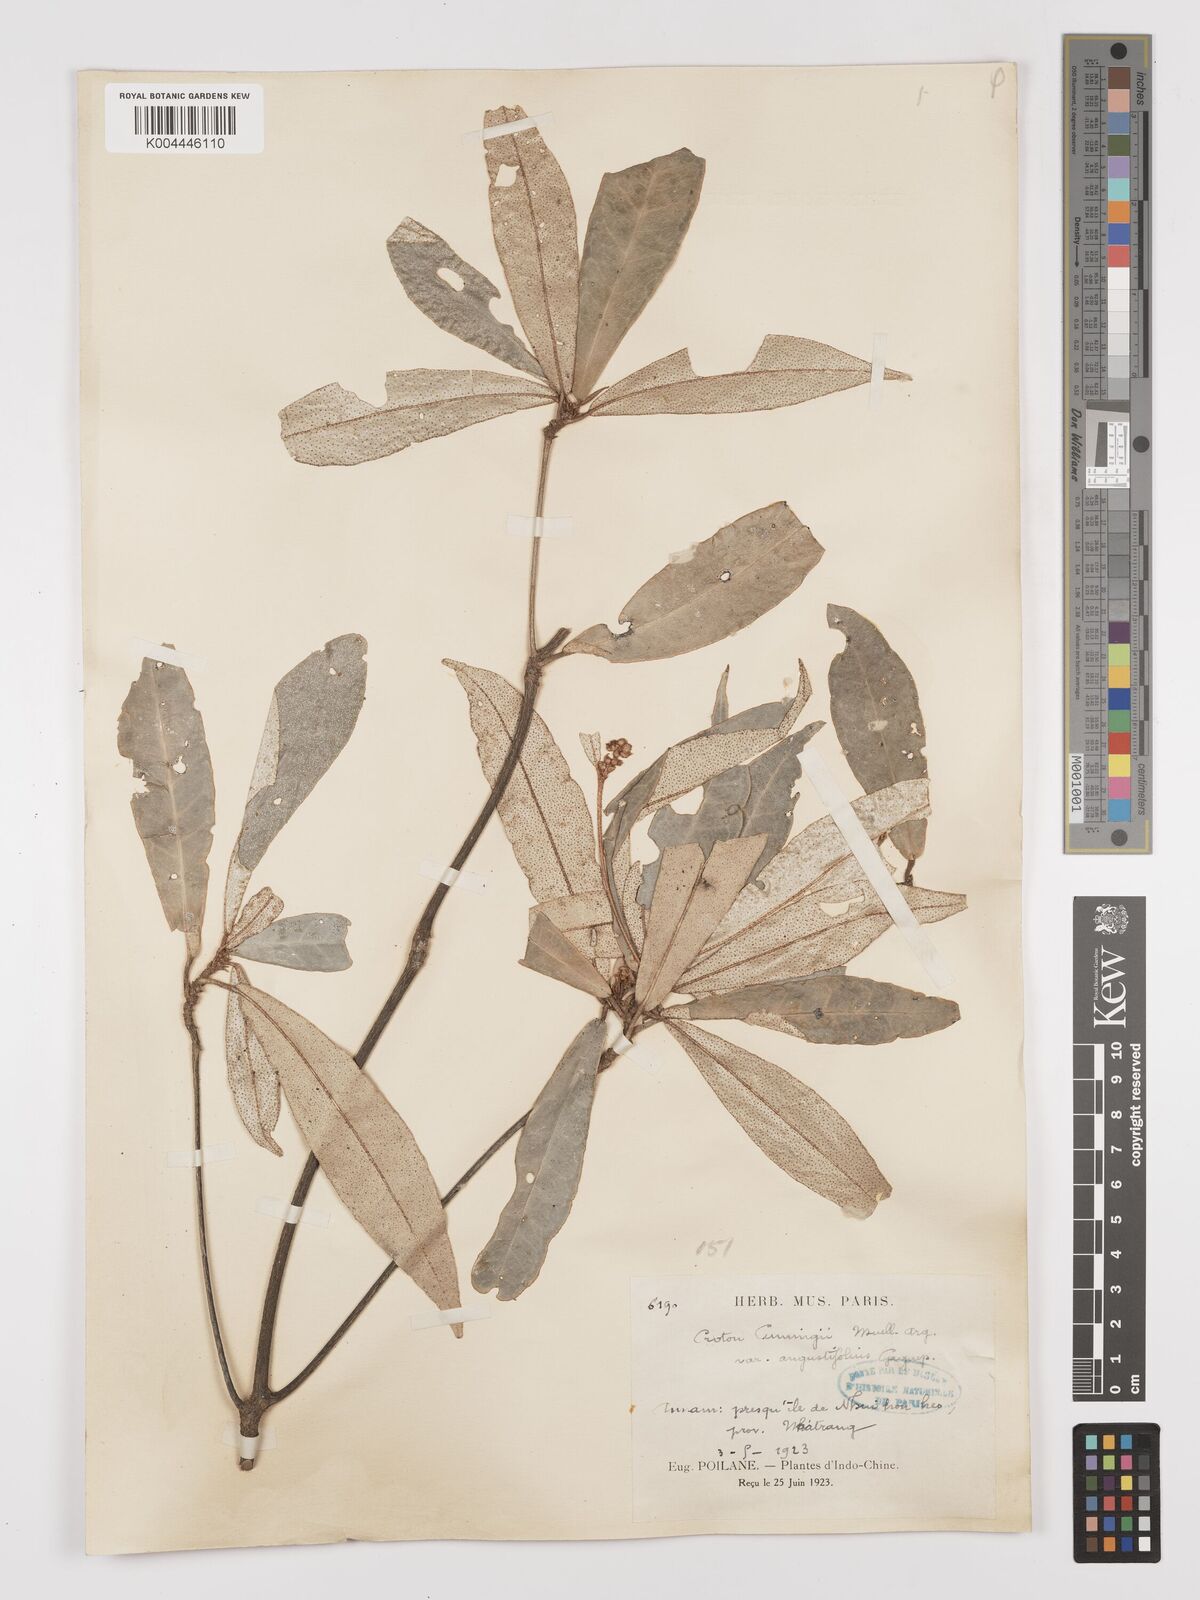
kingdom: Plantae
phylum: Tracheophyta
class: Magnoliopsida
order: Malpighiales
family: Euphorbiaceae
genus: Croton
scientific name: Croton cascarilloides
